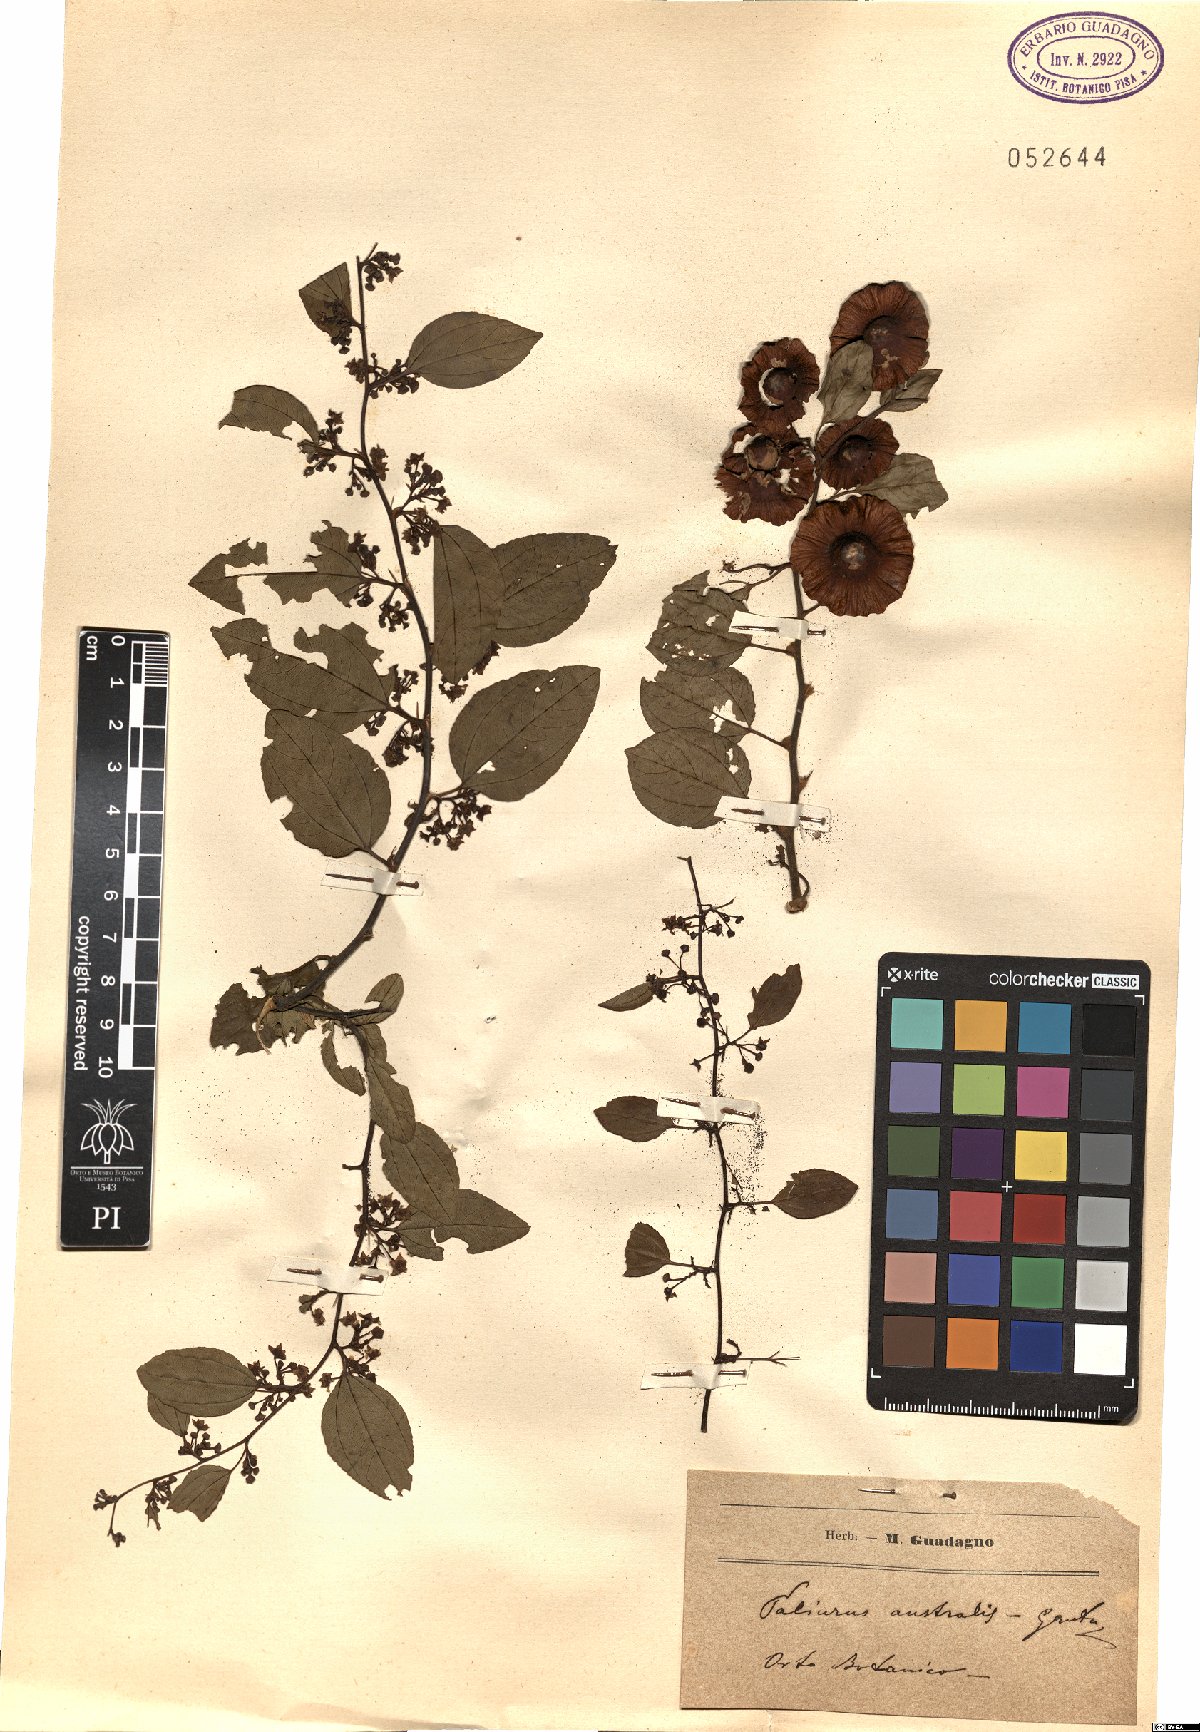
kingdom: Plantae
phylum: Tracheophyta
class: Magnoliopsida
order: Rosales
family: Rhamnaceae
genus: Paliurus
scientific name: Paliurus spina-christi
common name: Jeruselem thorn
